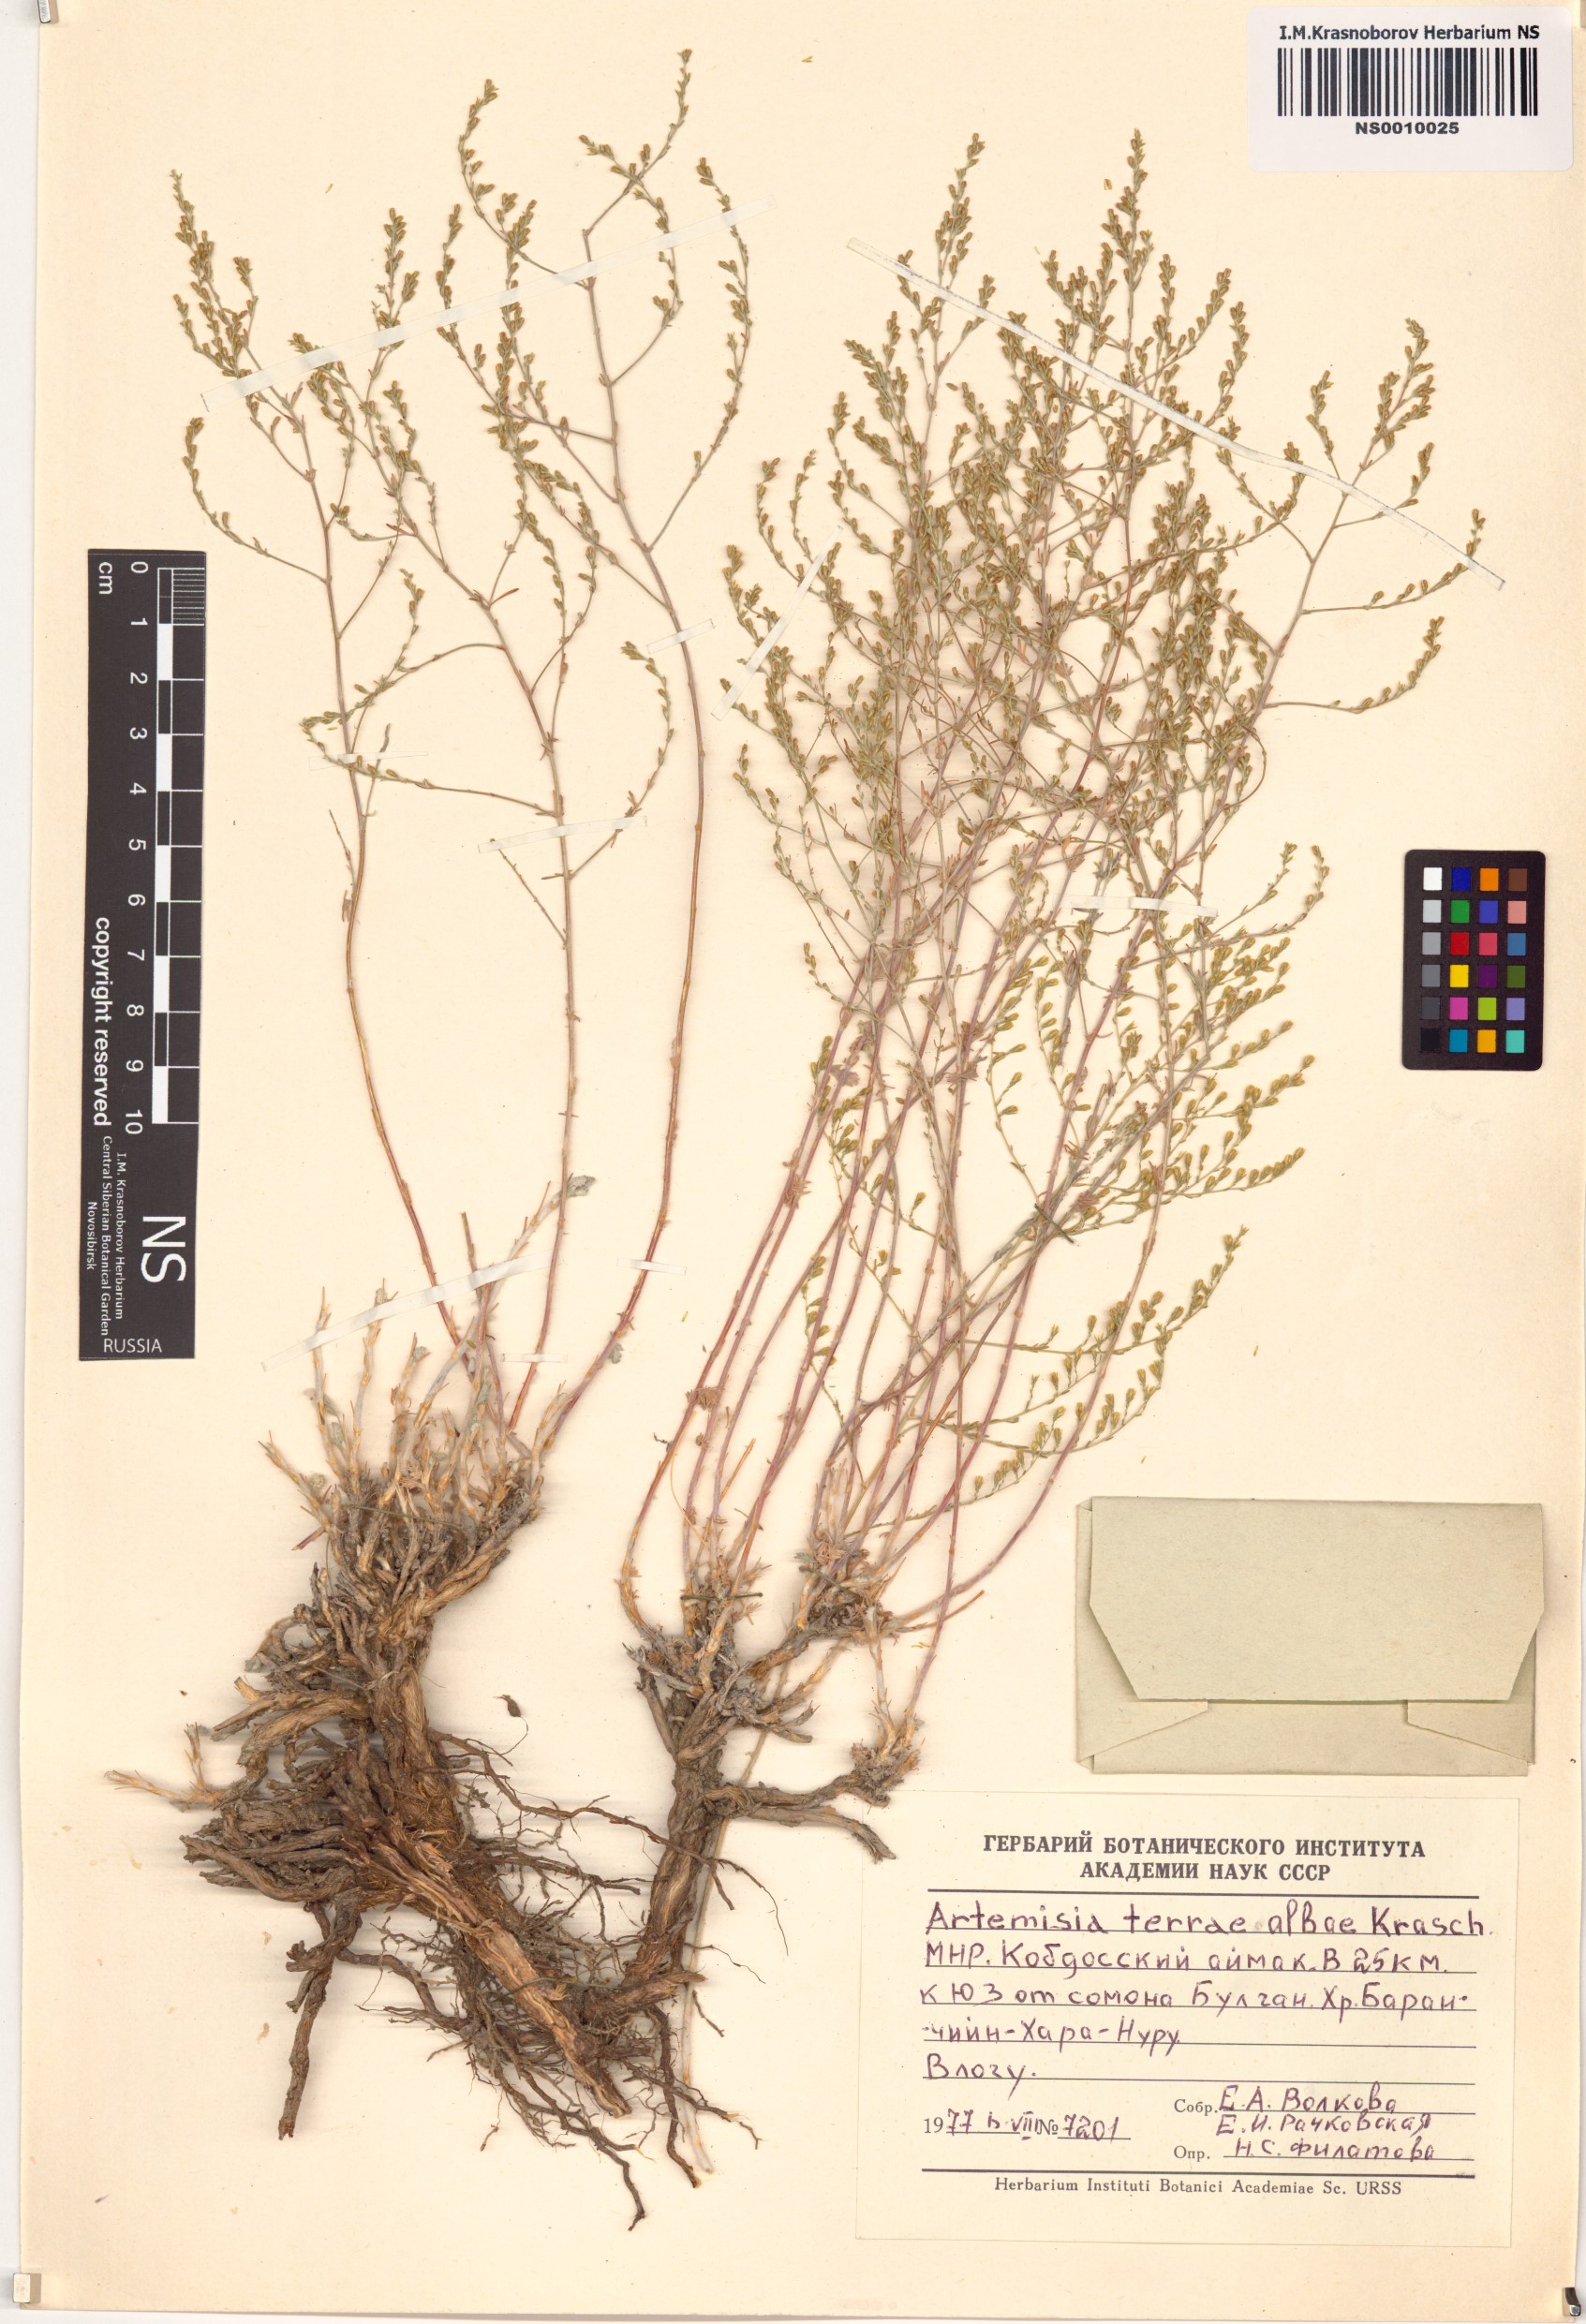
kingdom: Plantae
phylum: Tracheophyta
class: Magnoliopsida
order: Asterales
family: Asteraceae
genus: Artemisia
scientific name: Artemisia terrae-albae
